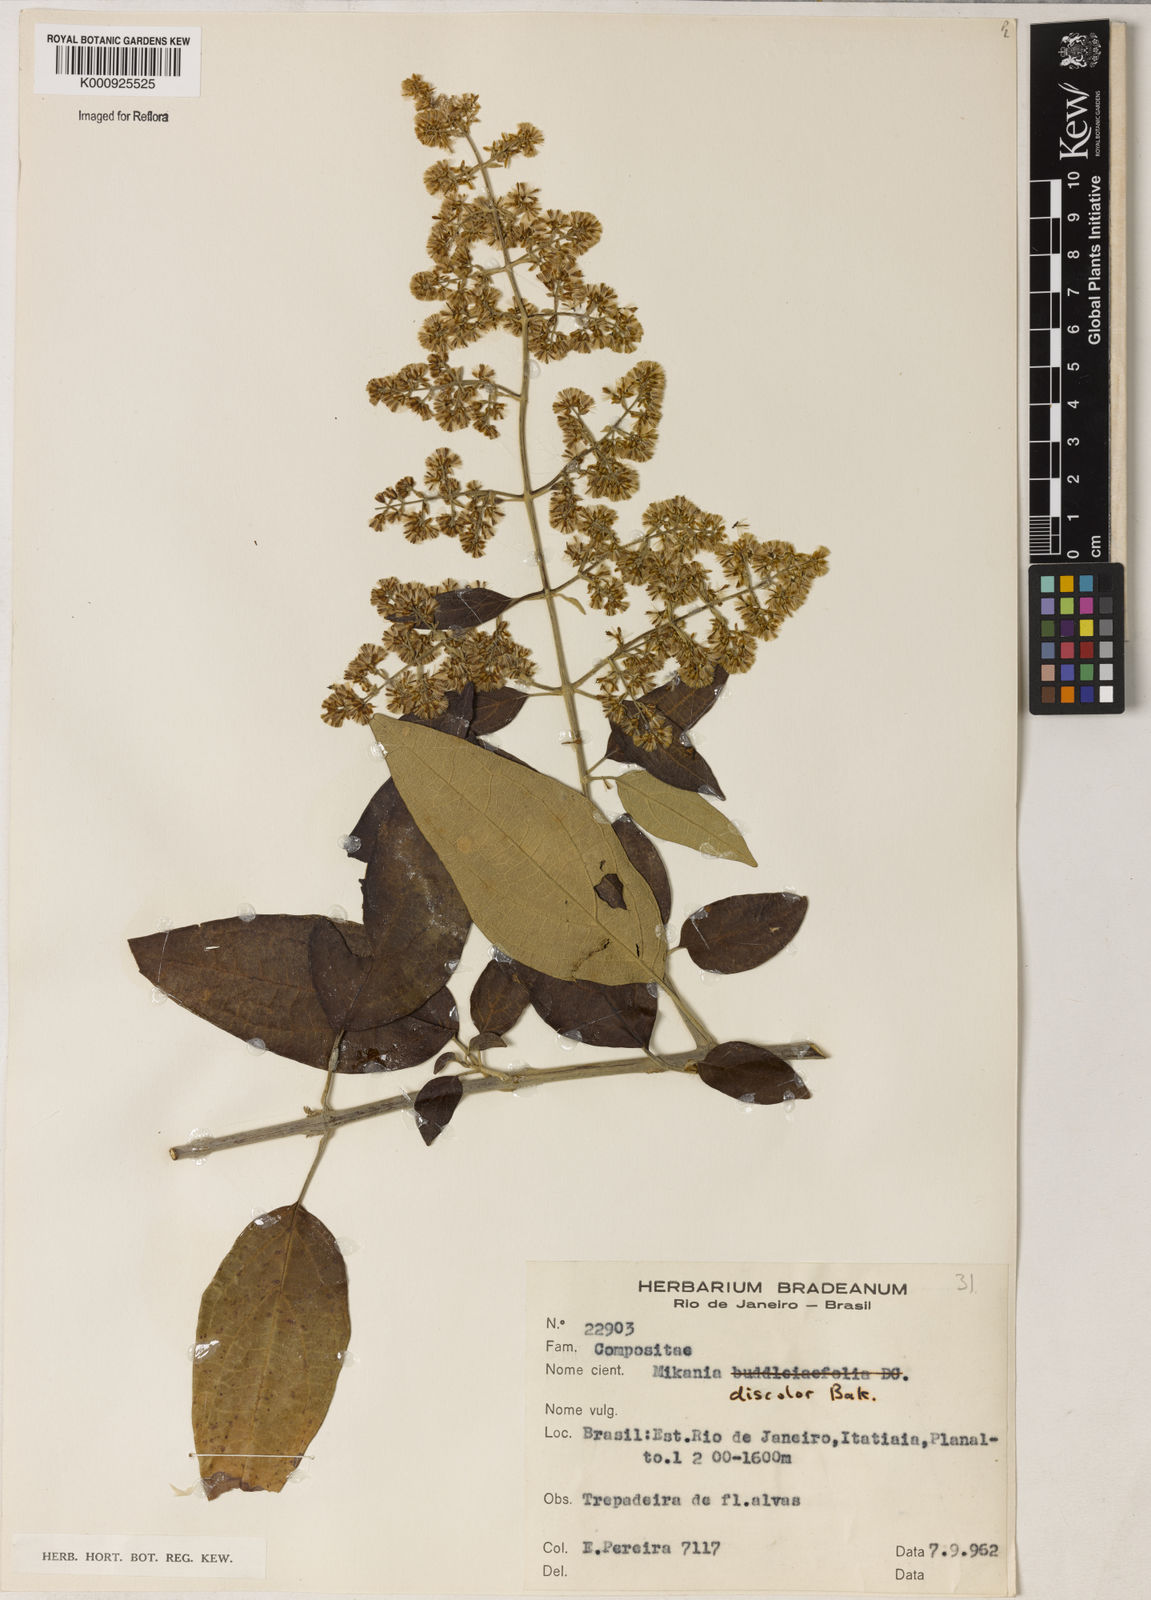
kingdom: Plantae
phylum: Tracheophyta
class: Magnoliopsida
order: Asterales
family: Asteraceae
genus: Mikania
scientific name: Mikania buddlejifolia
